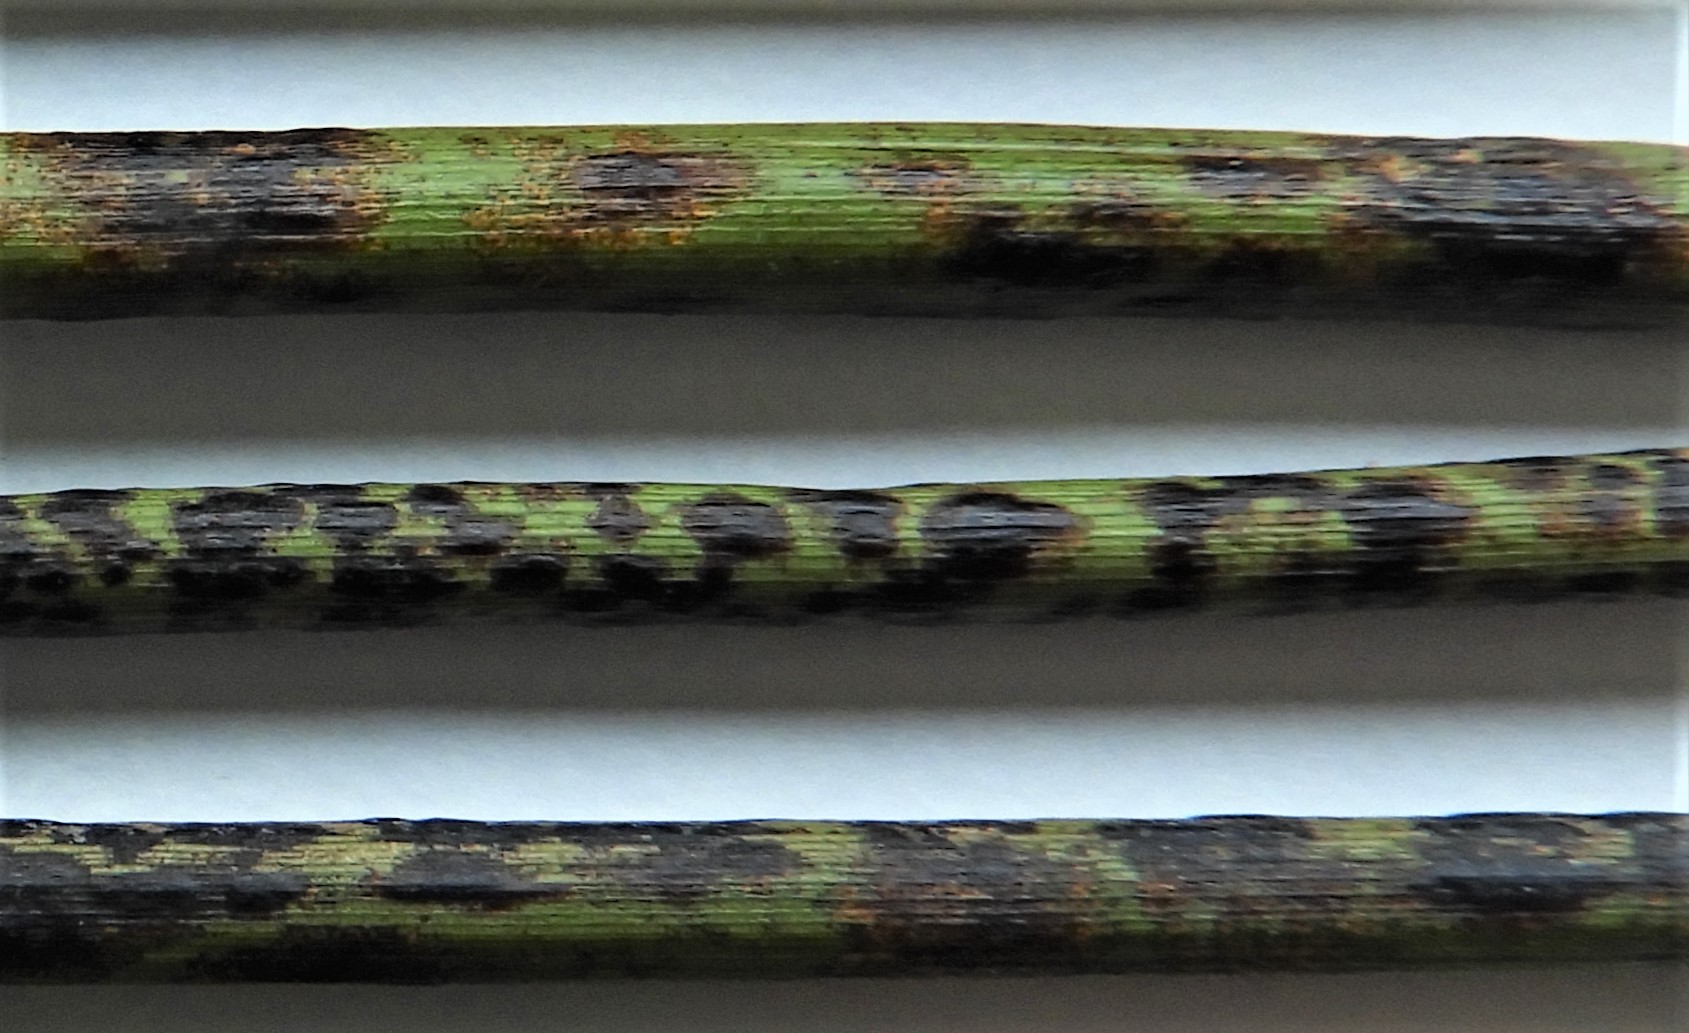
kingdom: Fungi
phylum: Ascomycota
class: Sordariomycetes
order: Phyllachorales
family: Phyllachoraceae
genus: Phyllachora
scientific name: Phyllachora junci
